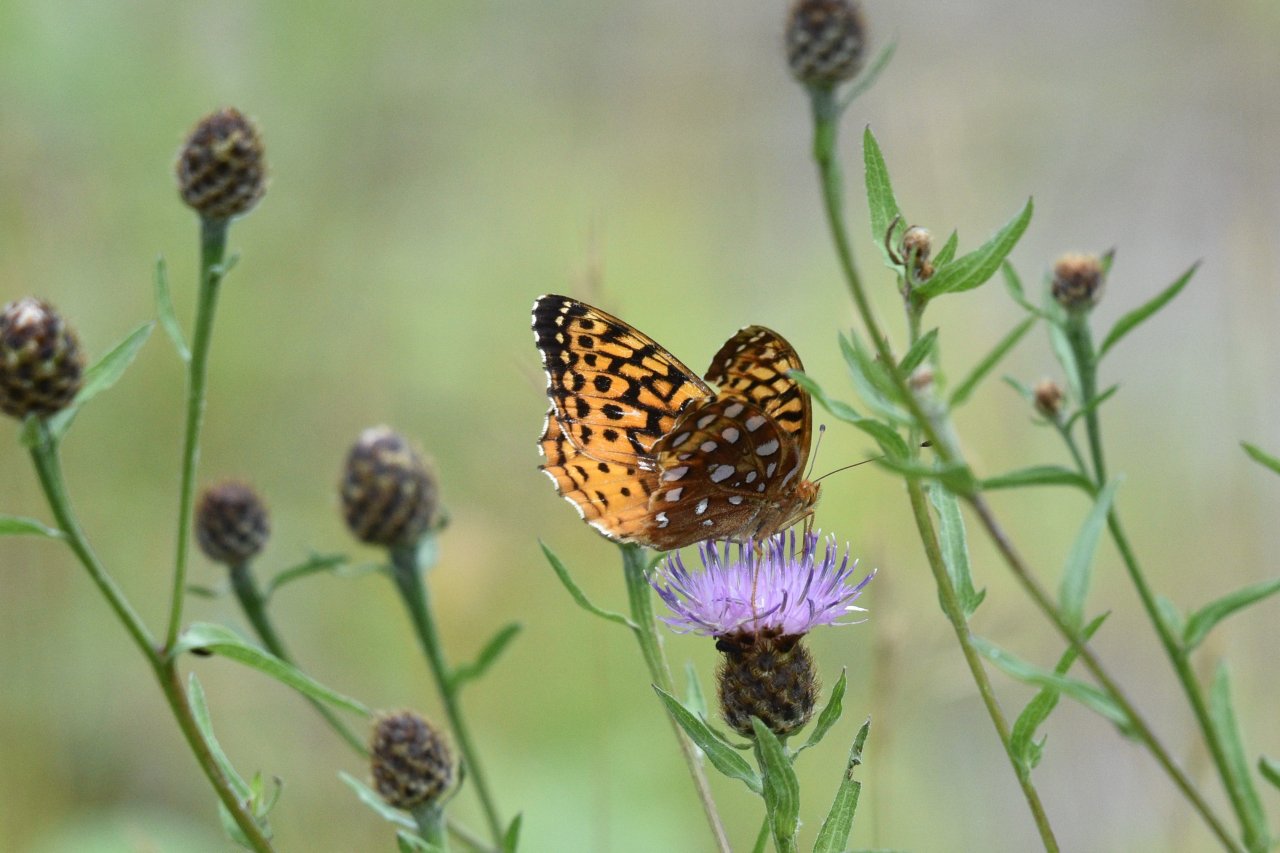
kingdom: Animalia
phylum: Arthropoda
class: Insecta
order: Lepidoptera
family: Nymphalidae
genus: Speyeria
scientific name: Speyeria cybele
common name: Great Spangled Fritillary
